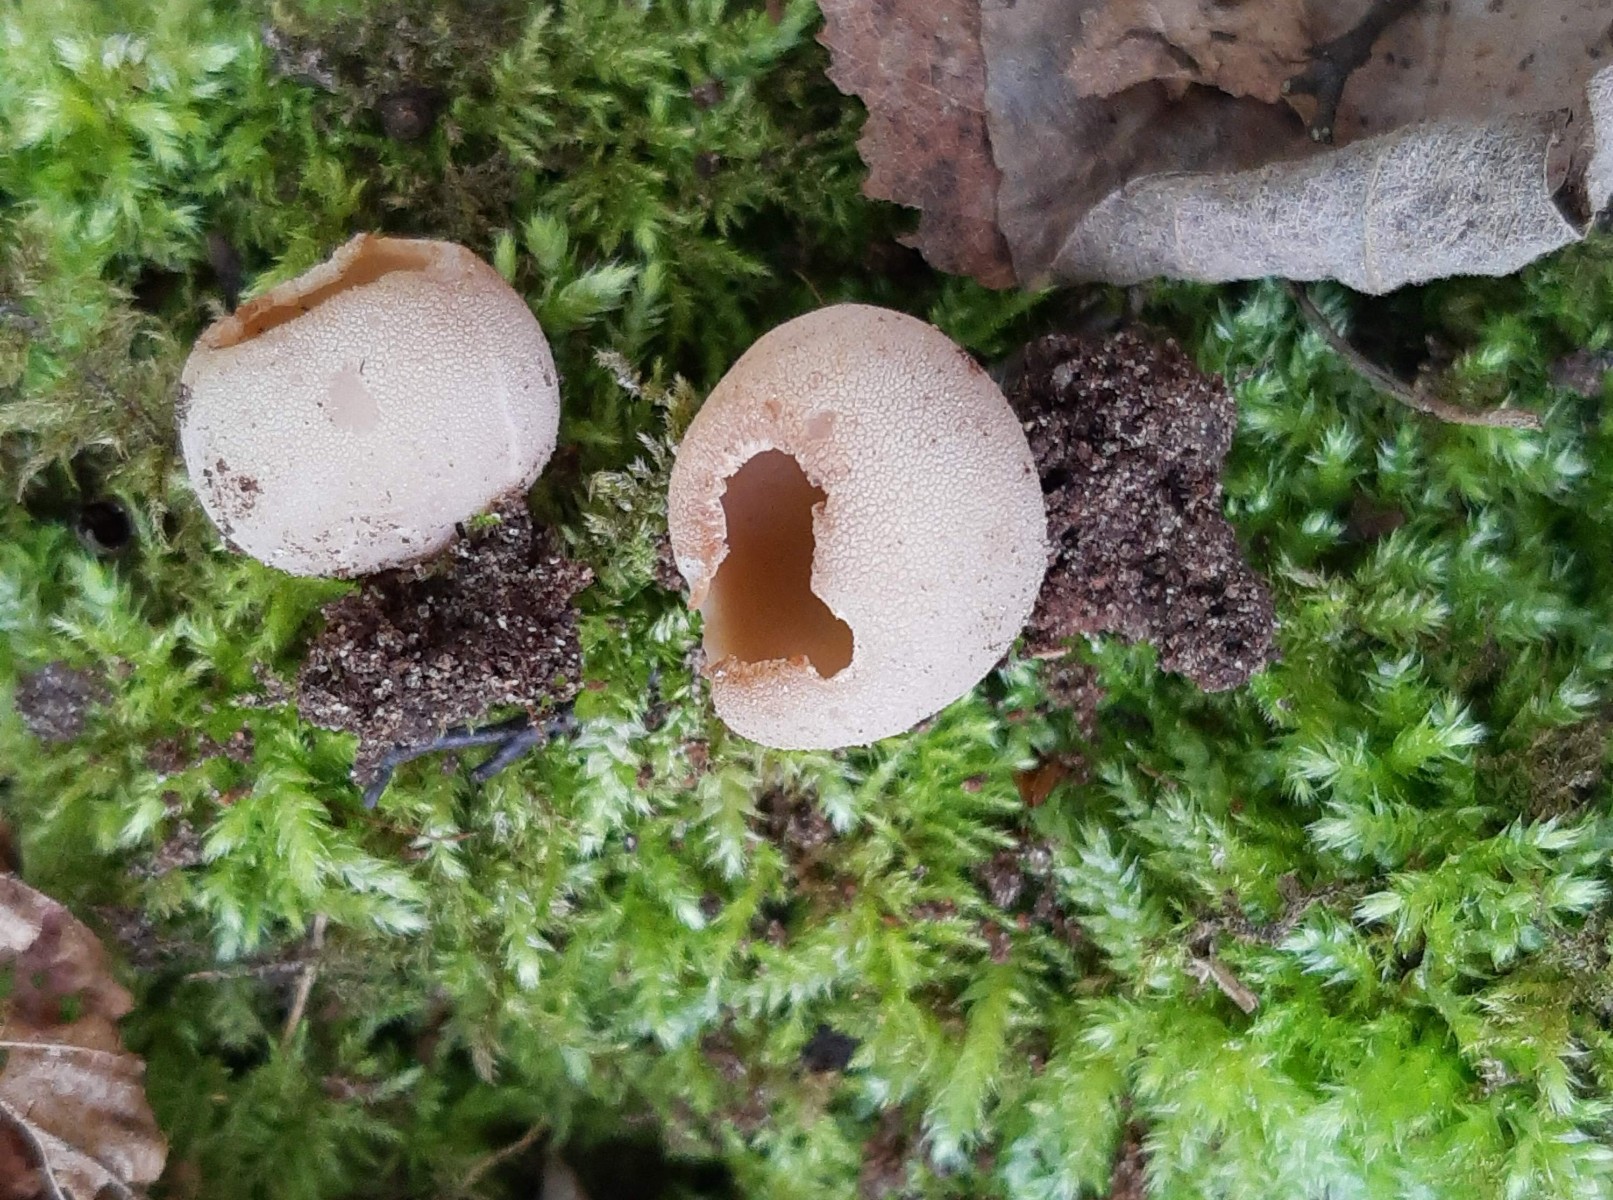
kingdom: Fungi
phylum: Ascomycota
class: Pezizomycetes
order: Pezizales
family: Pyronemataceae
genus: Tarzetta
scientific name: Tarzetta cupularis
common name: gulbrun pokalbæger
